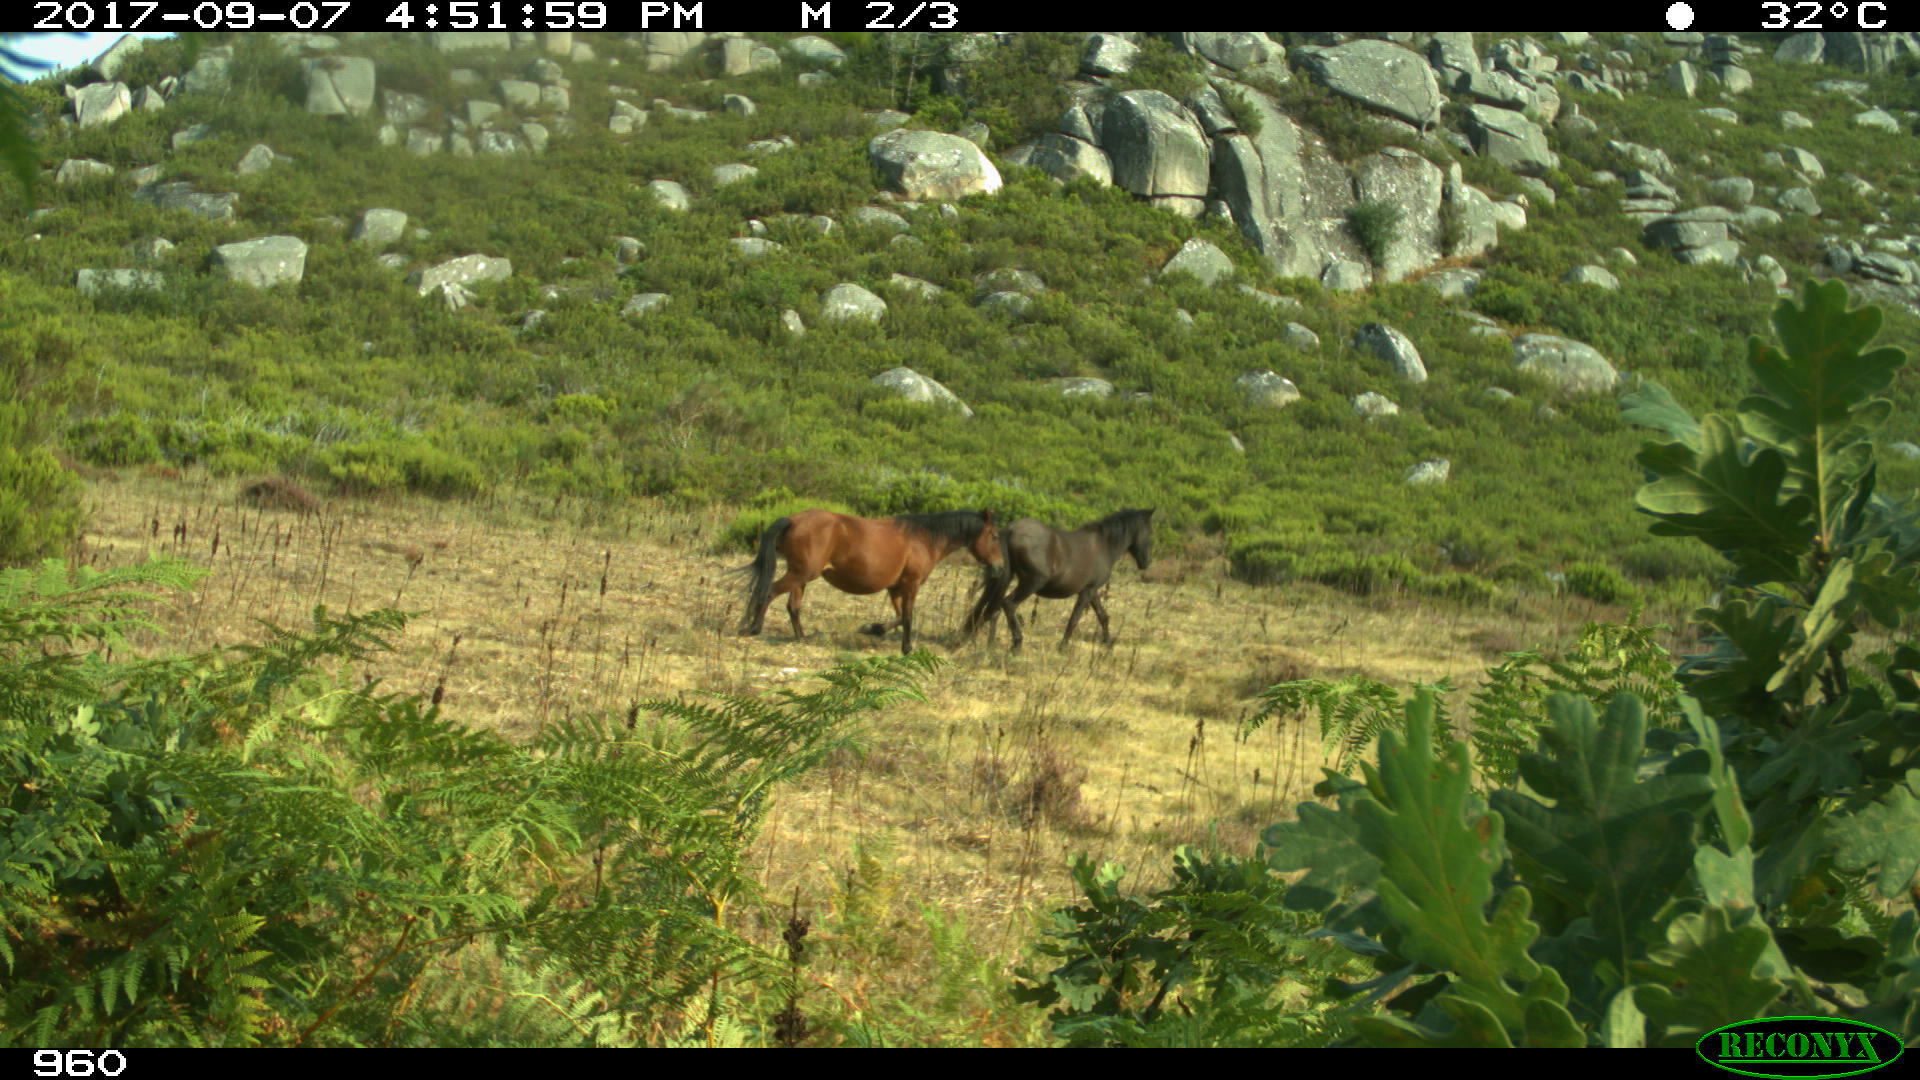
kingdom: Animalia
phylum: Chordata
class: Mammalia
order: Perissodactyla
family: Equidae
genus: Equus
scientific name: Equus caballus
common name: Horse
